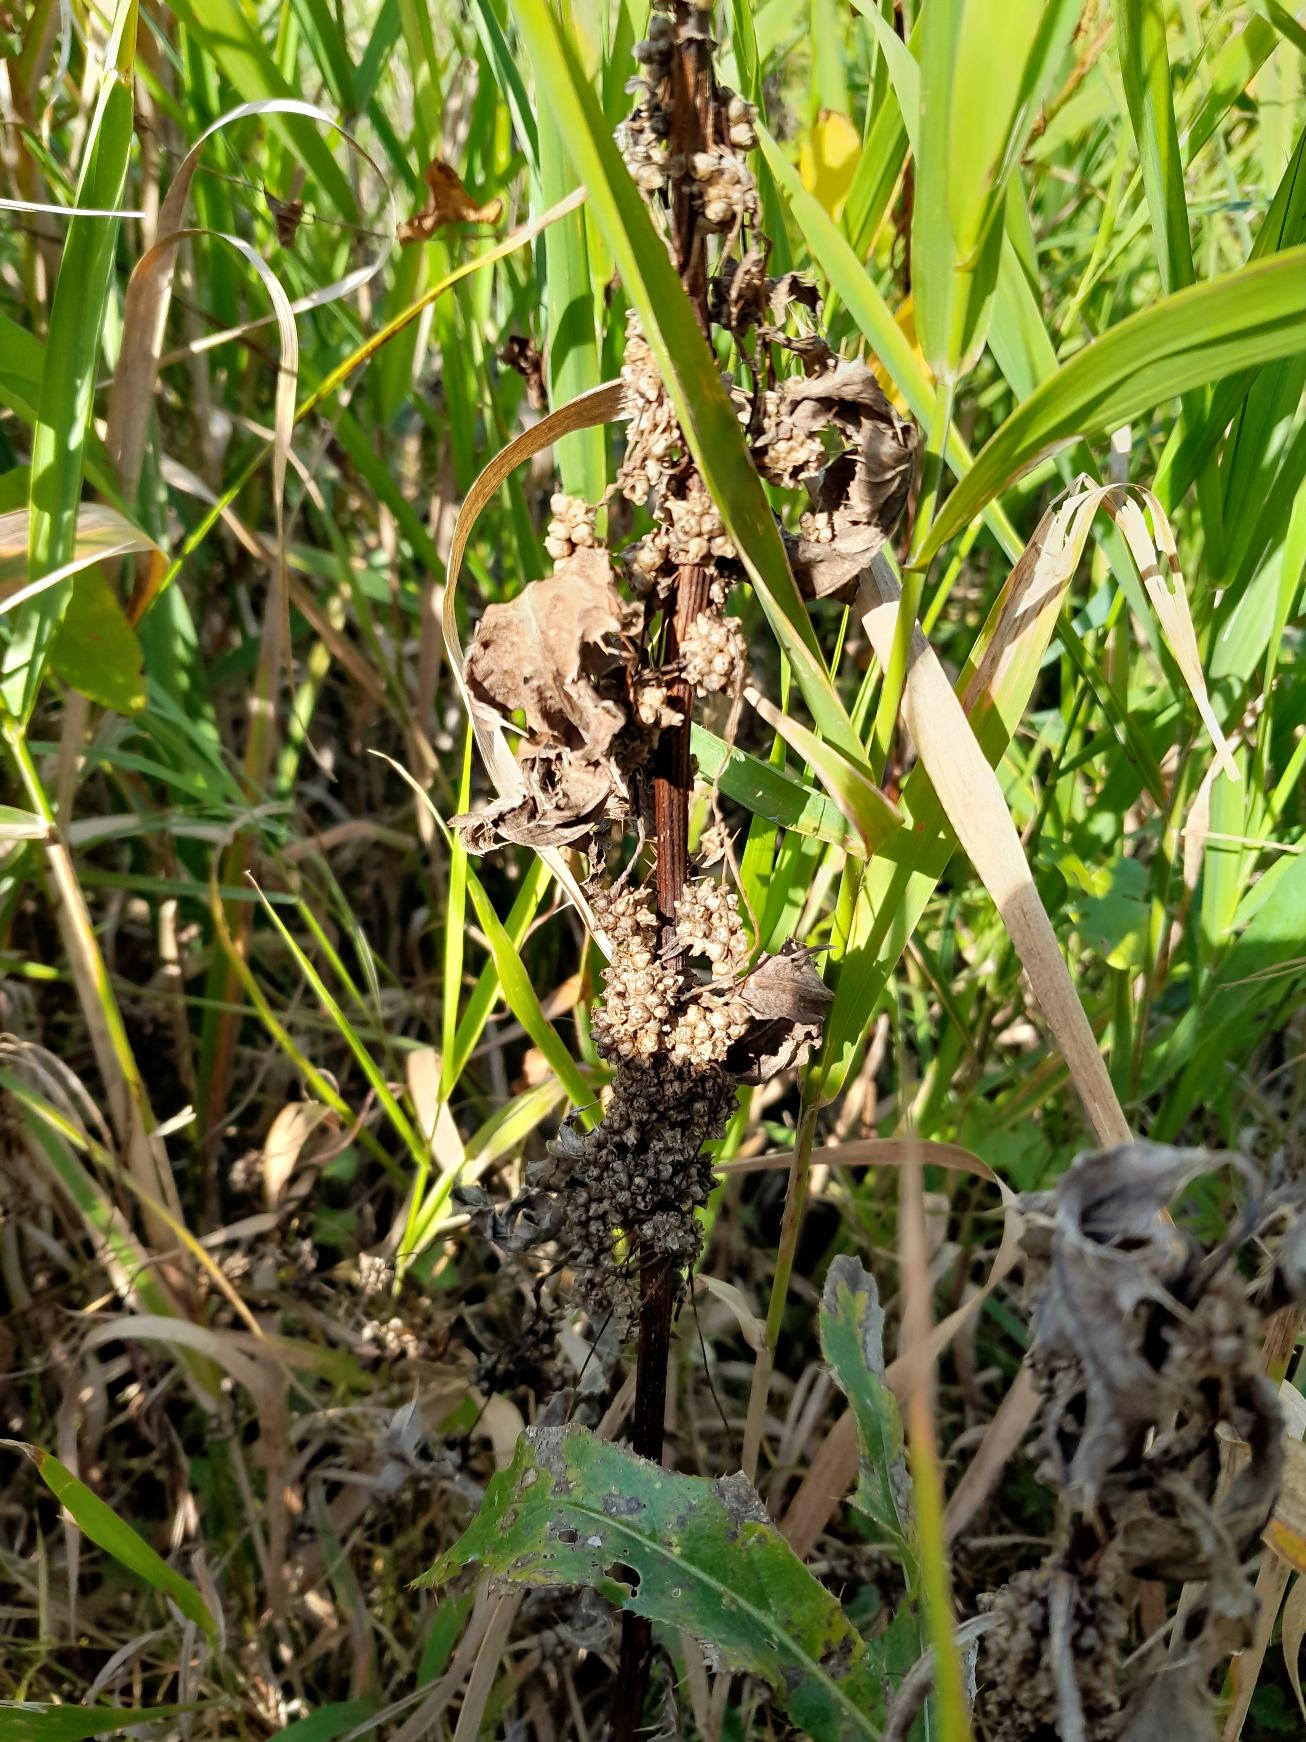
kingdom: Plantae
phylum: Tracheophyta
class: Magnoliopsida
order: Solanales
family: Convolvulaceae
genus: Cuscuta
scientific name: Cuscuta europaea
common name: Nælde-silke
